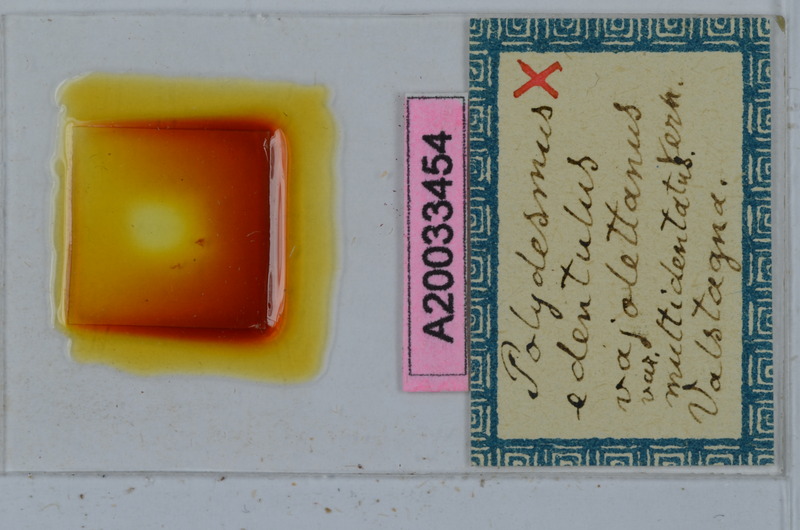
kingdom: Animalia
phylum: Arthropoda
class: Diplopoda
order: Polydesmida
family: Polydesmidae
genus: Polydesmus
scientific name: Polydesmus edentulus
